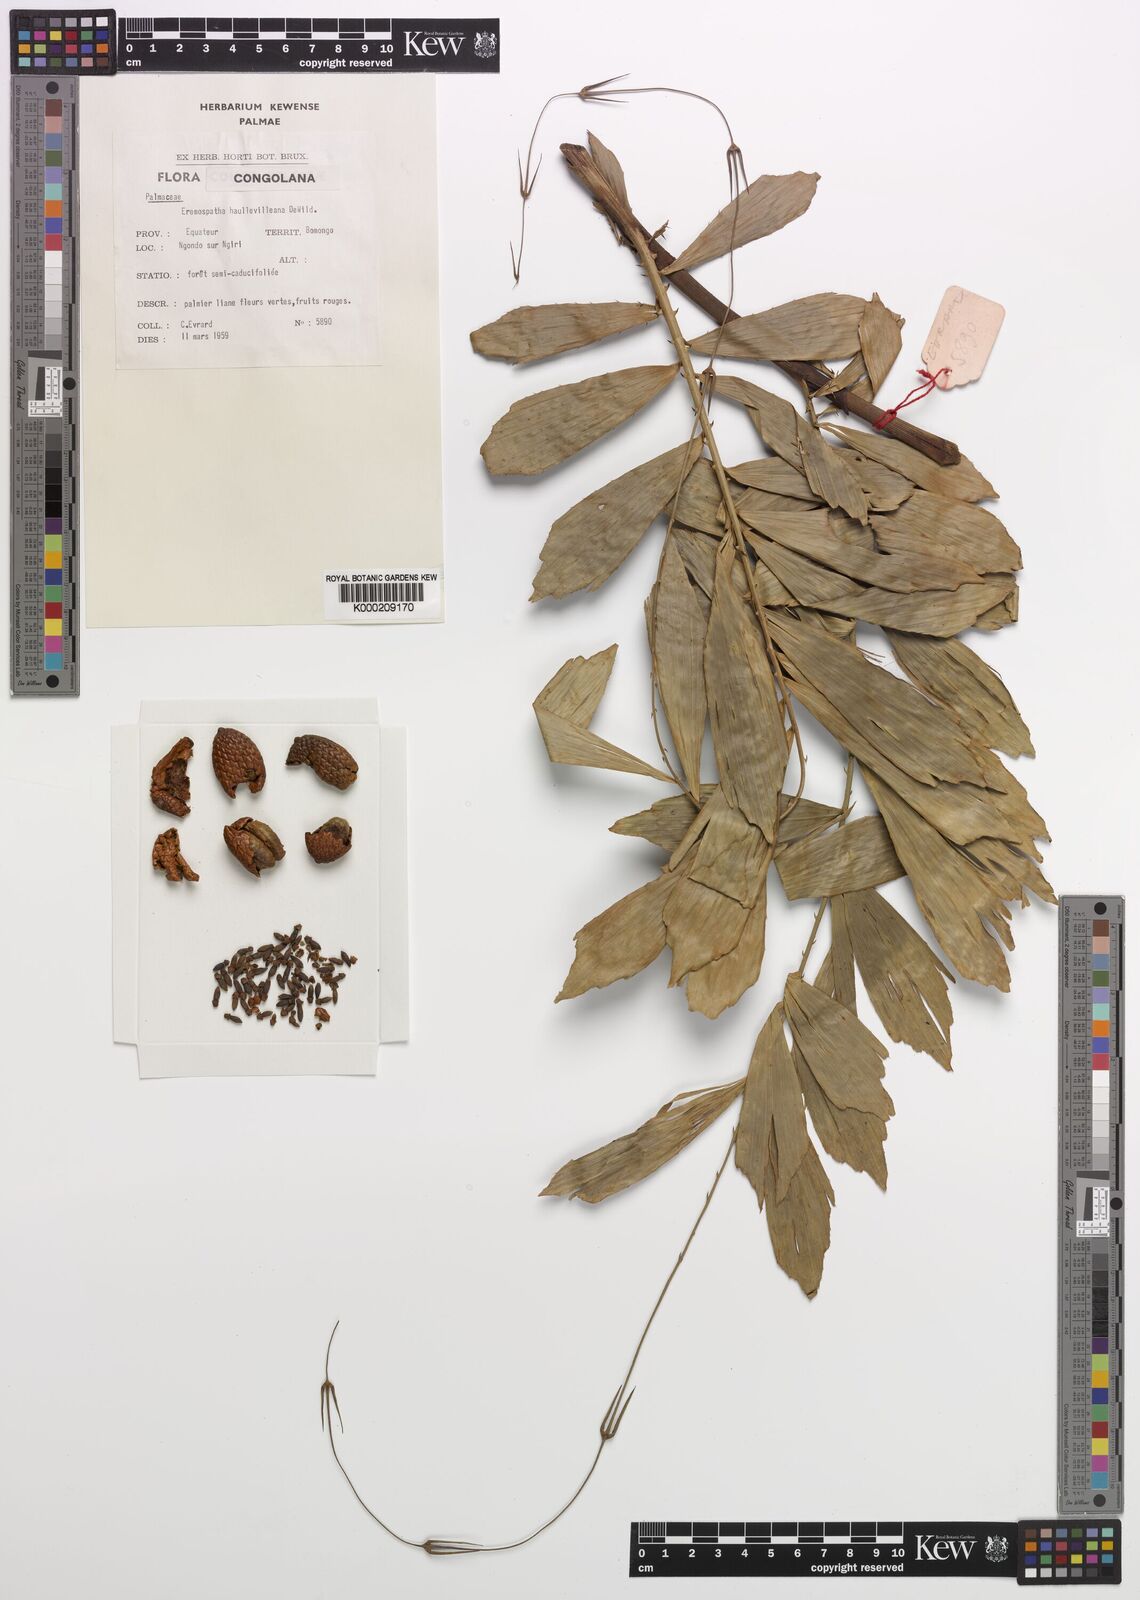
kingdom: Plantae
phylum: Tracheophyta
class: Liliopsida
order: Arecales
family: Arecaceae
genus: Eremospatha
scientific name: Eremospatha haullevilleana
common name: Rattan
